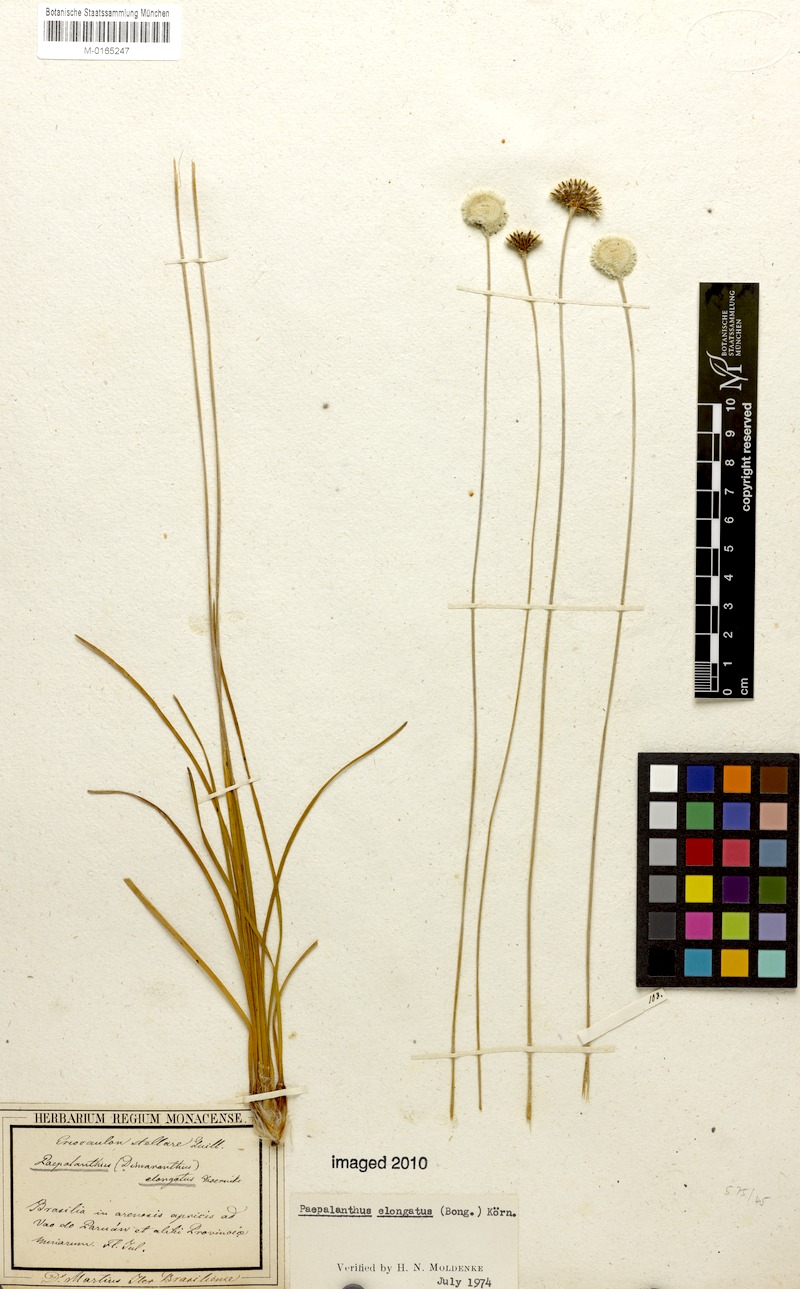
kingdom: Plantae
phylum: Tracheophyta
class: Liliopsida
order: Poales
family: Eriocaulaceae
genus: Paepalanthus
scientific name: Paepalanthus elongatus
